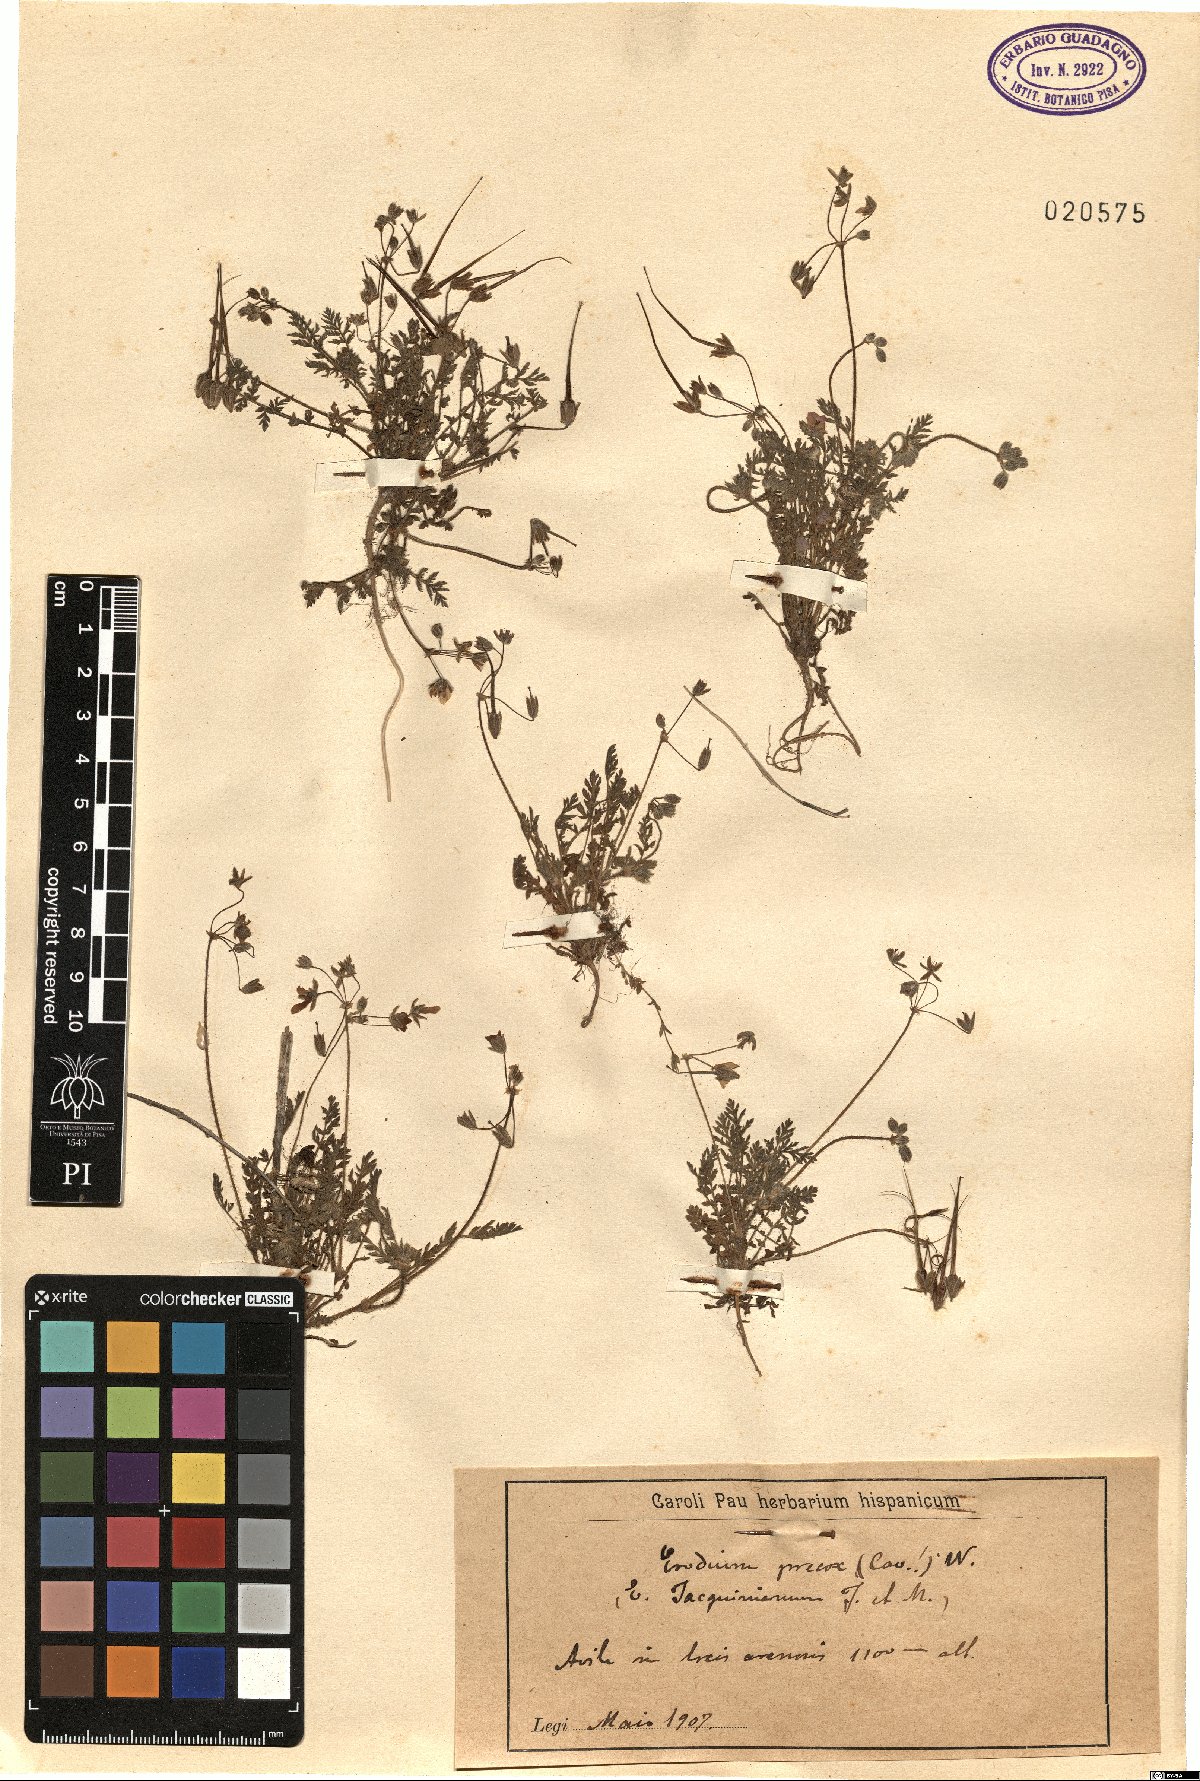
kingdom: Plantae
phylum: Tracheophyta
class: Magnoliopsida
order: Geraniales
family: Geraniaceae
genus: Erodium
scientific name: Erodium cicutarium
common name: Common stork's-bill
